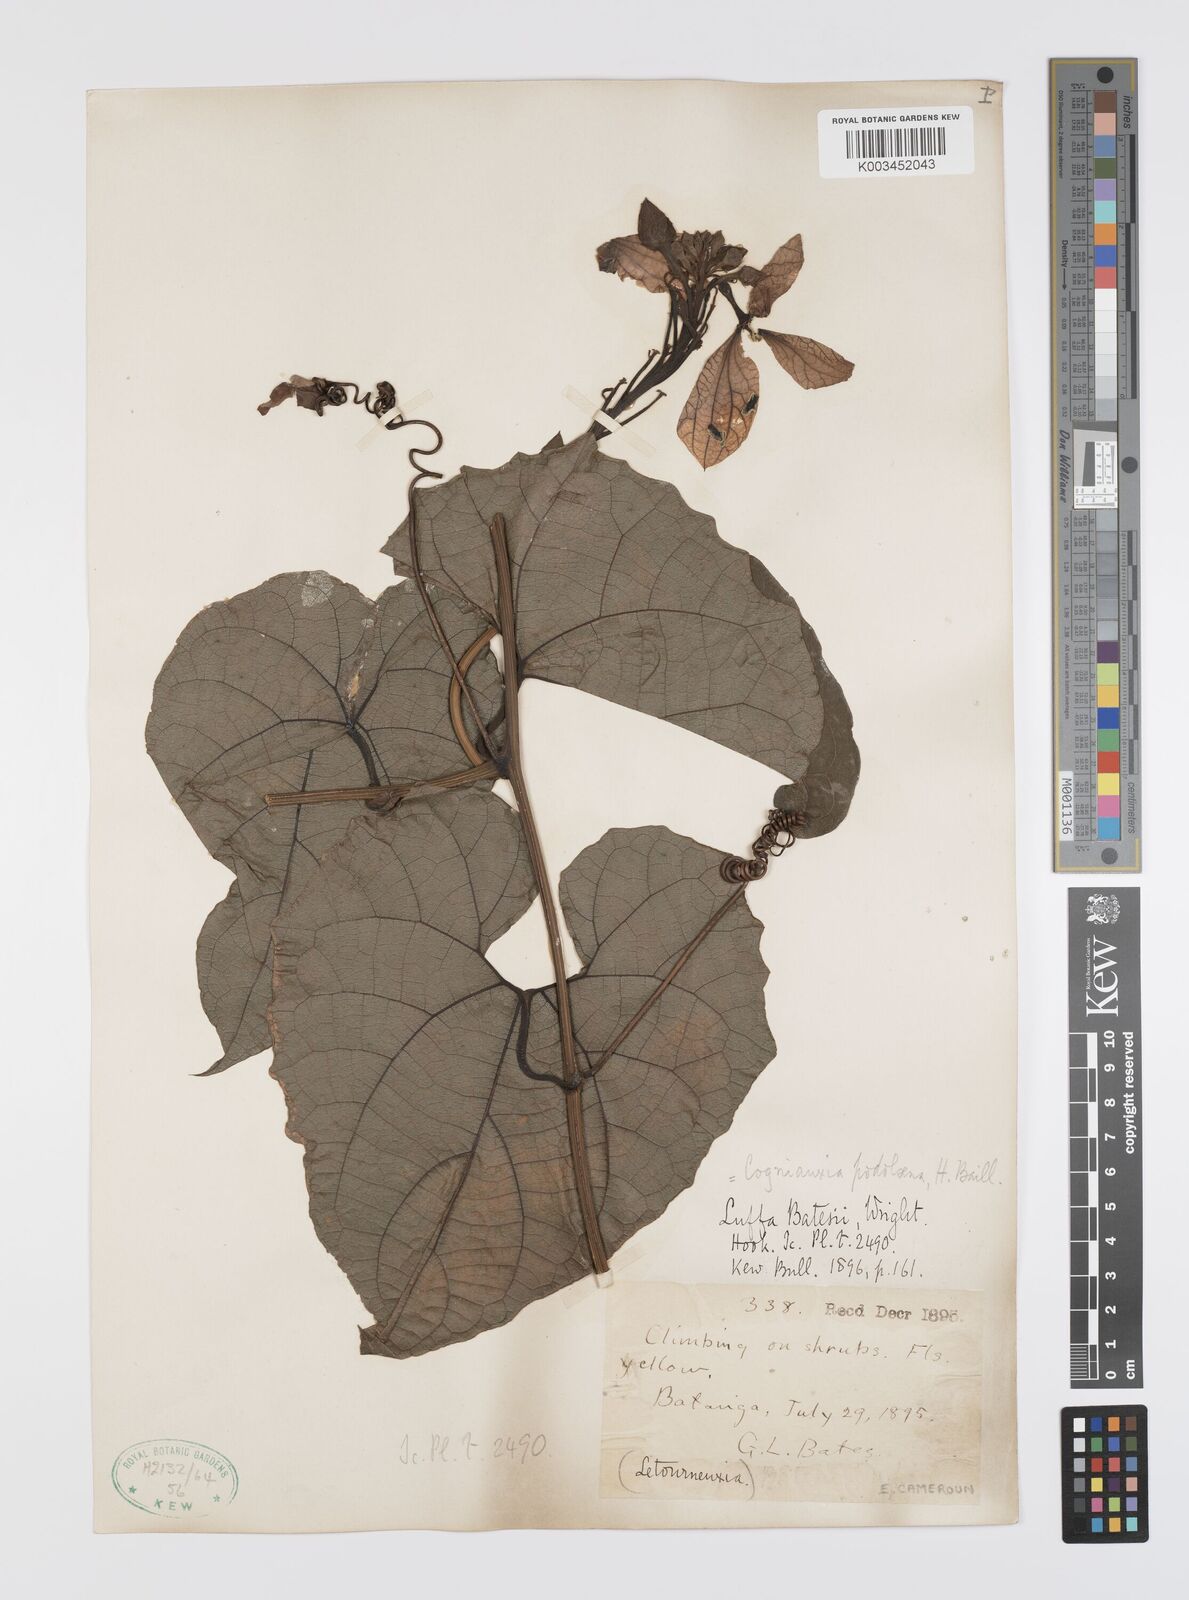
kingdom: Plantae
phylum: Tracheophyta
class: Magnoliopsida
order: Cucurbitales
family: Cucurbitaceae
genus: Cogniauxia
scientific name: Cogniauxia podolaena
